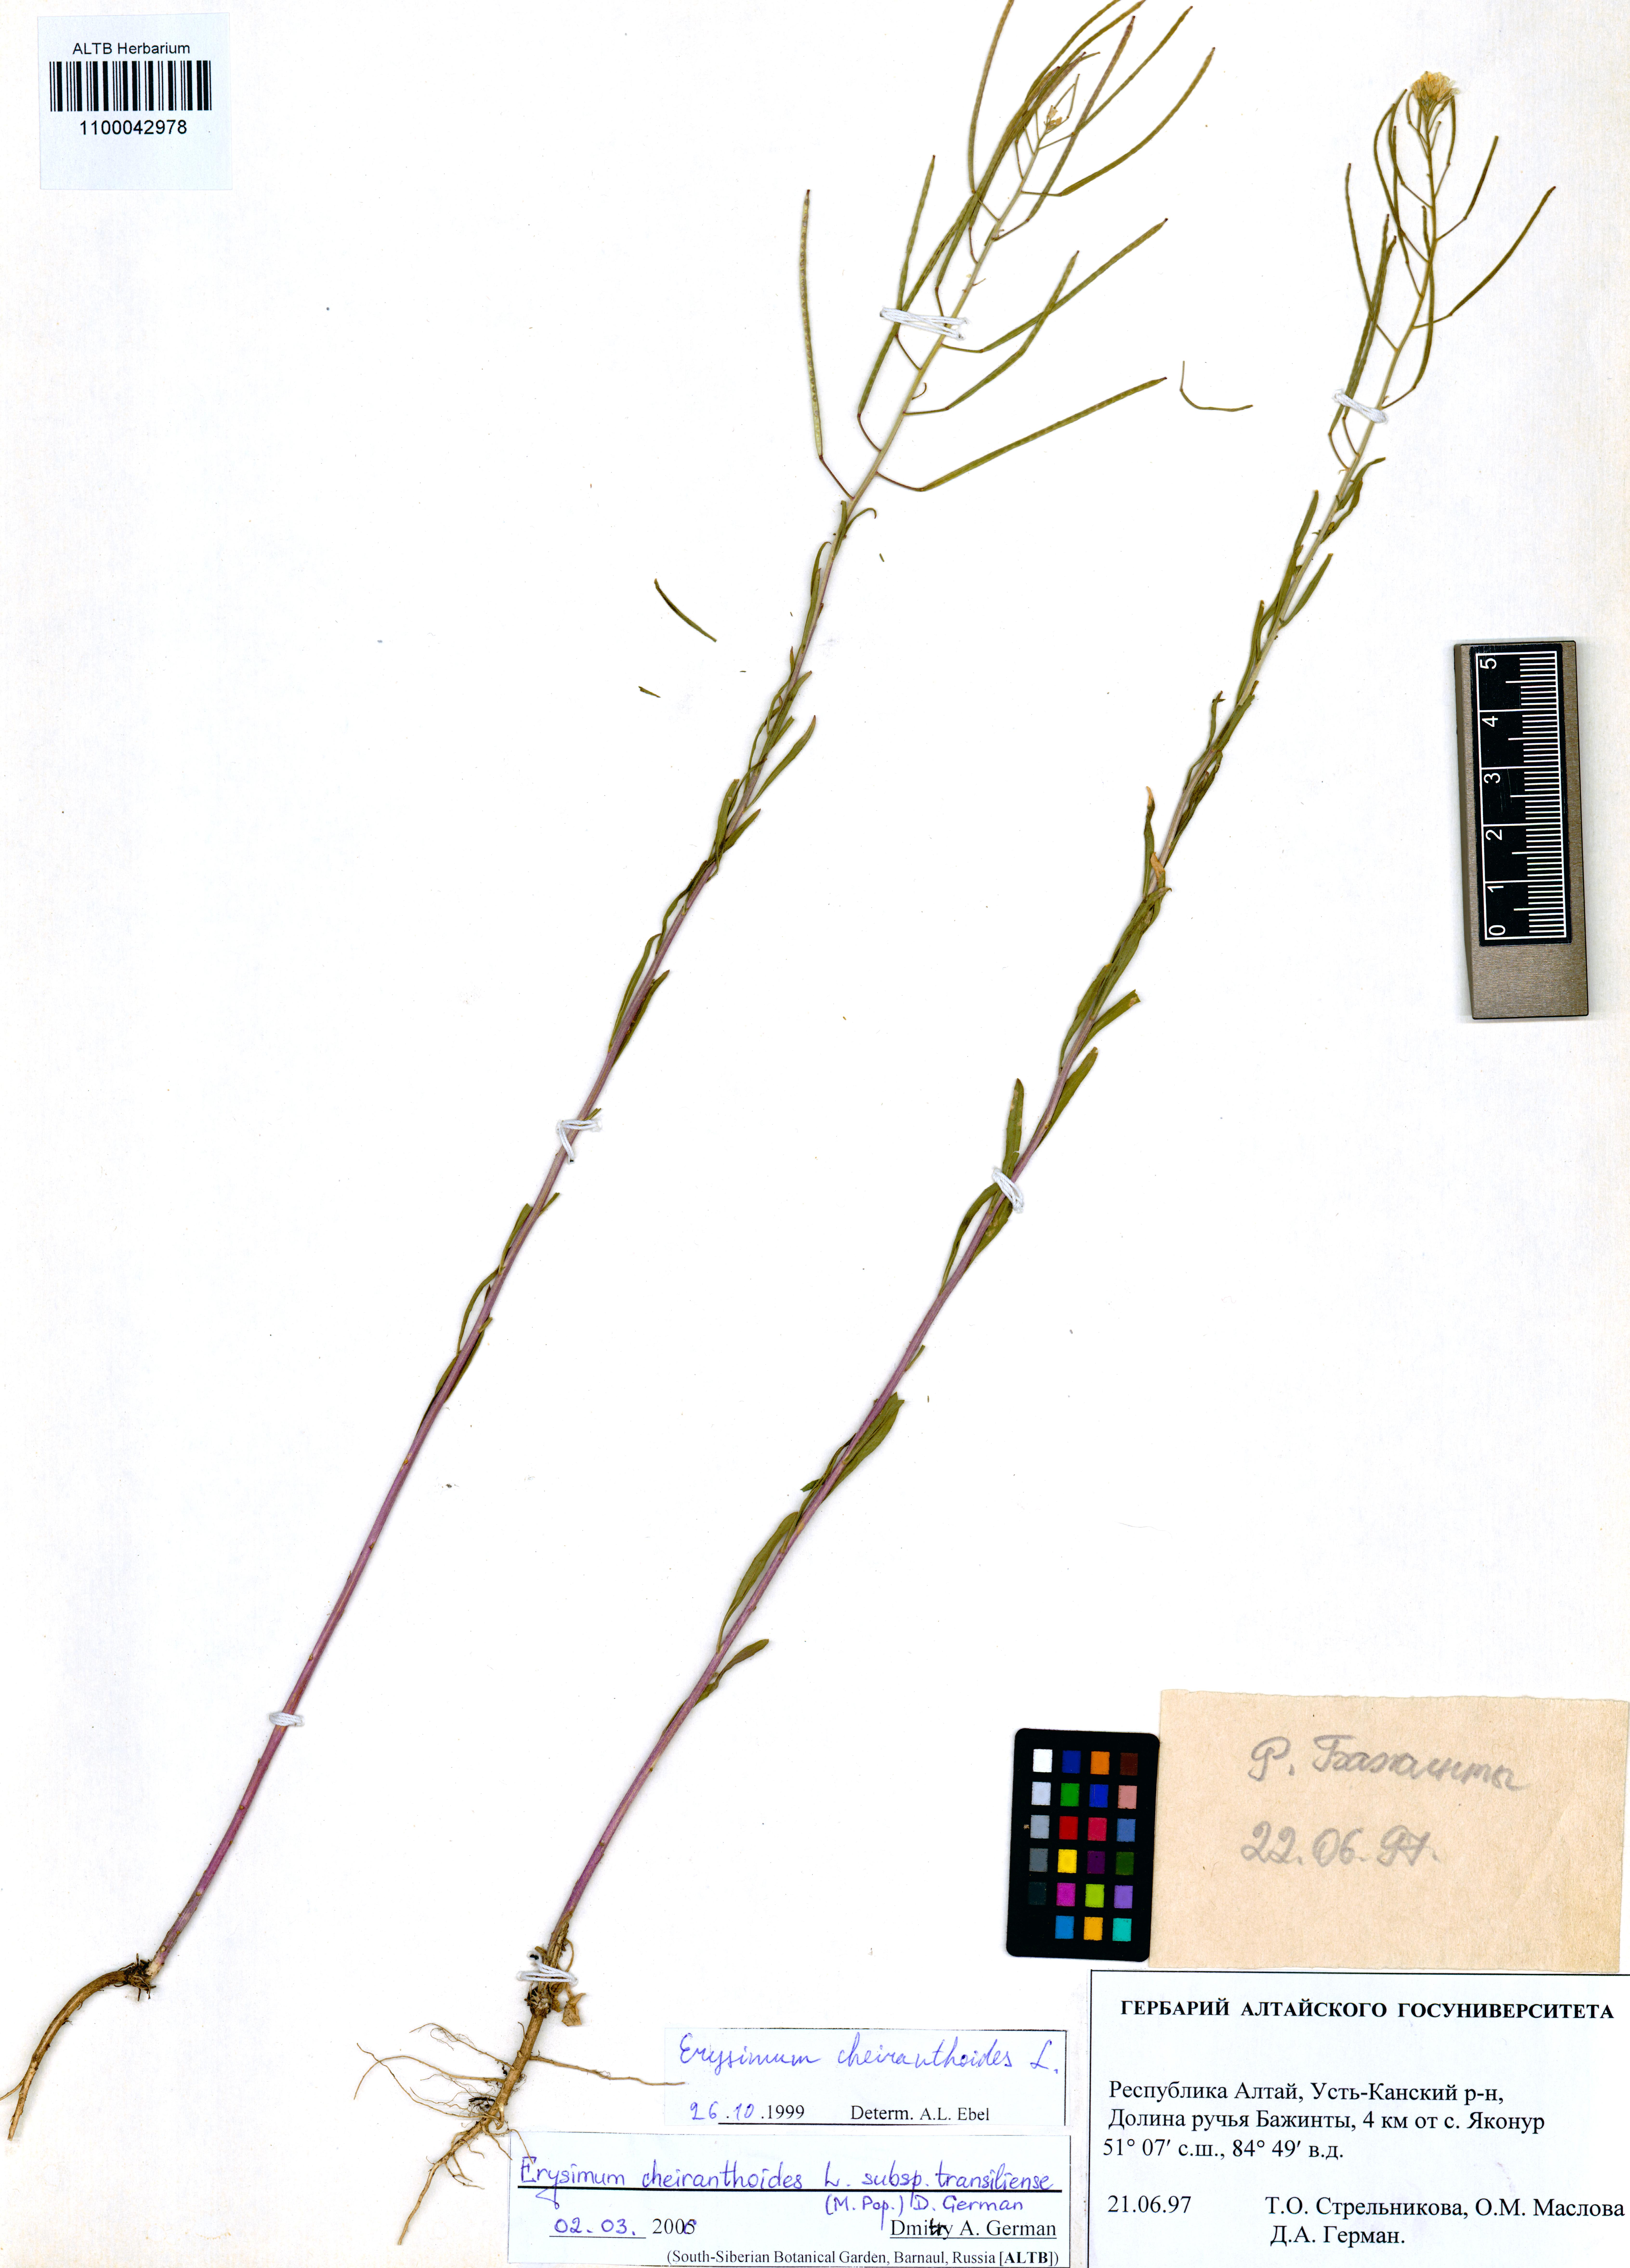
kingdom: Plantae
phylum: Tracheophyta
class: Magnoliopsida
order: Brassicales
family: Brassicaceae
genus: Erysimum
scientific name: Erysimum virgatum
